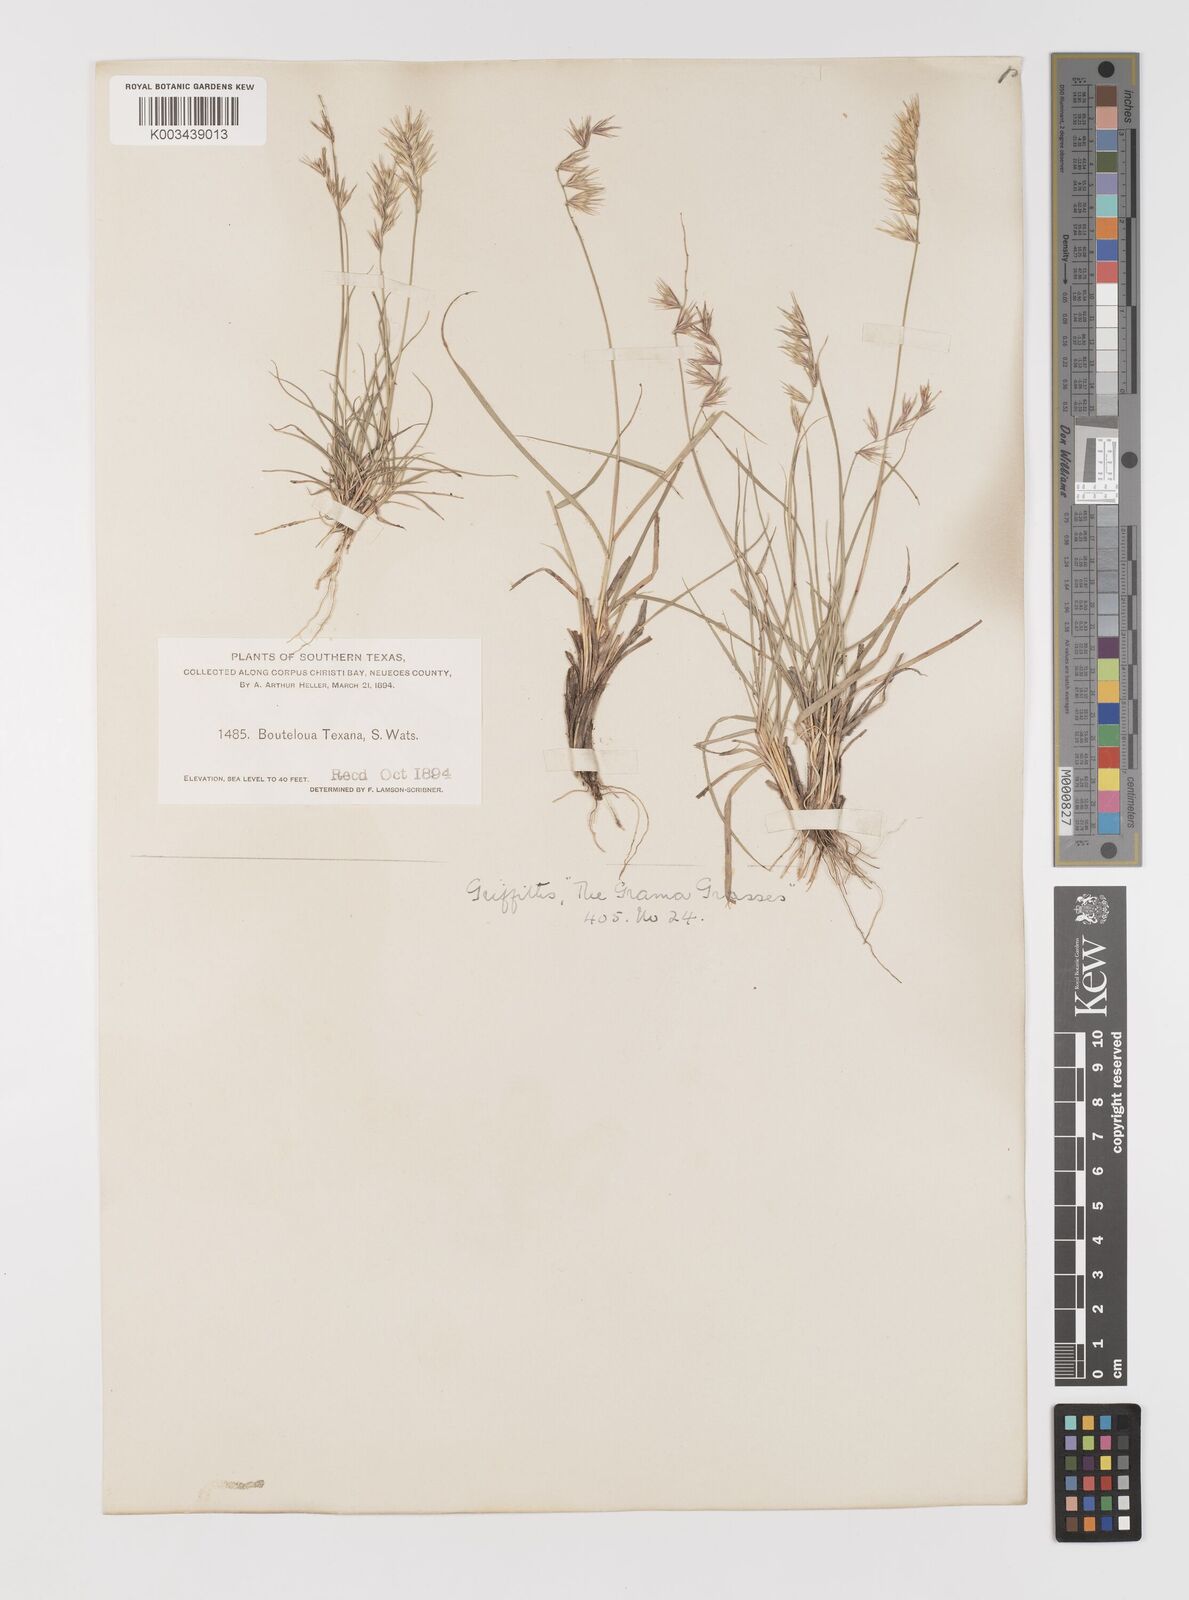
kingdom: Plantae
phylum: Tracheophyta
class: Liliopsida
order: Poales
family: Poaceae
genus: Bouteloua
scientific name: Bouteloua rigidiseta
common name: Texas grama
